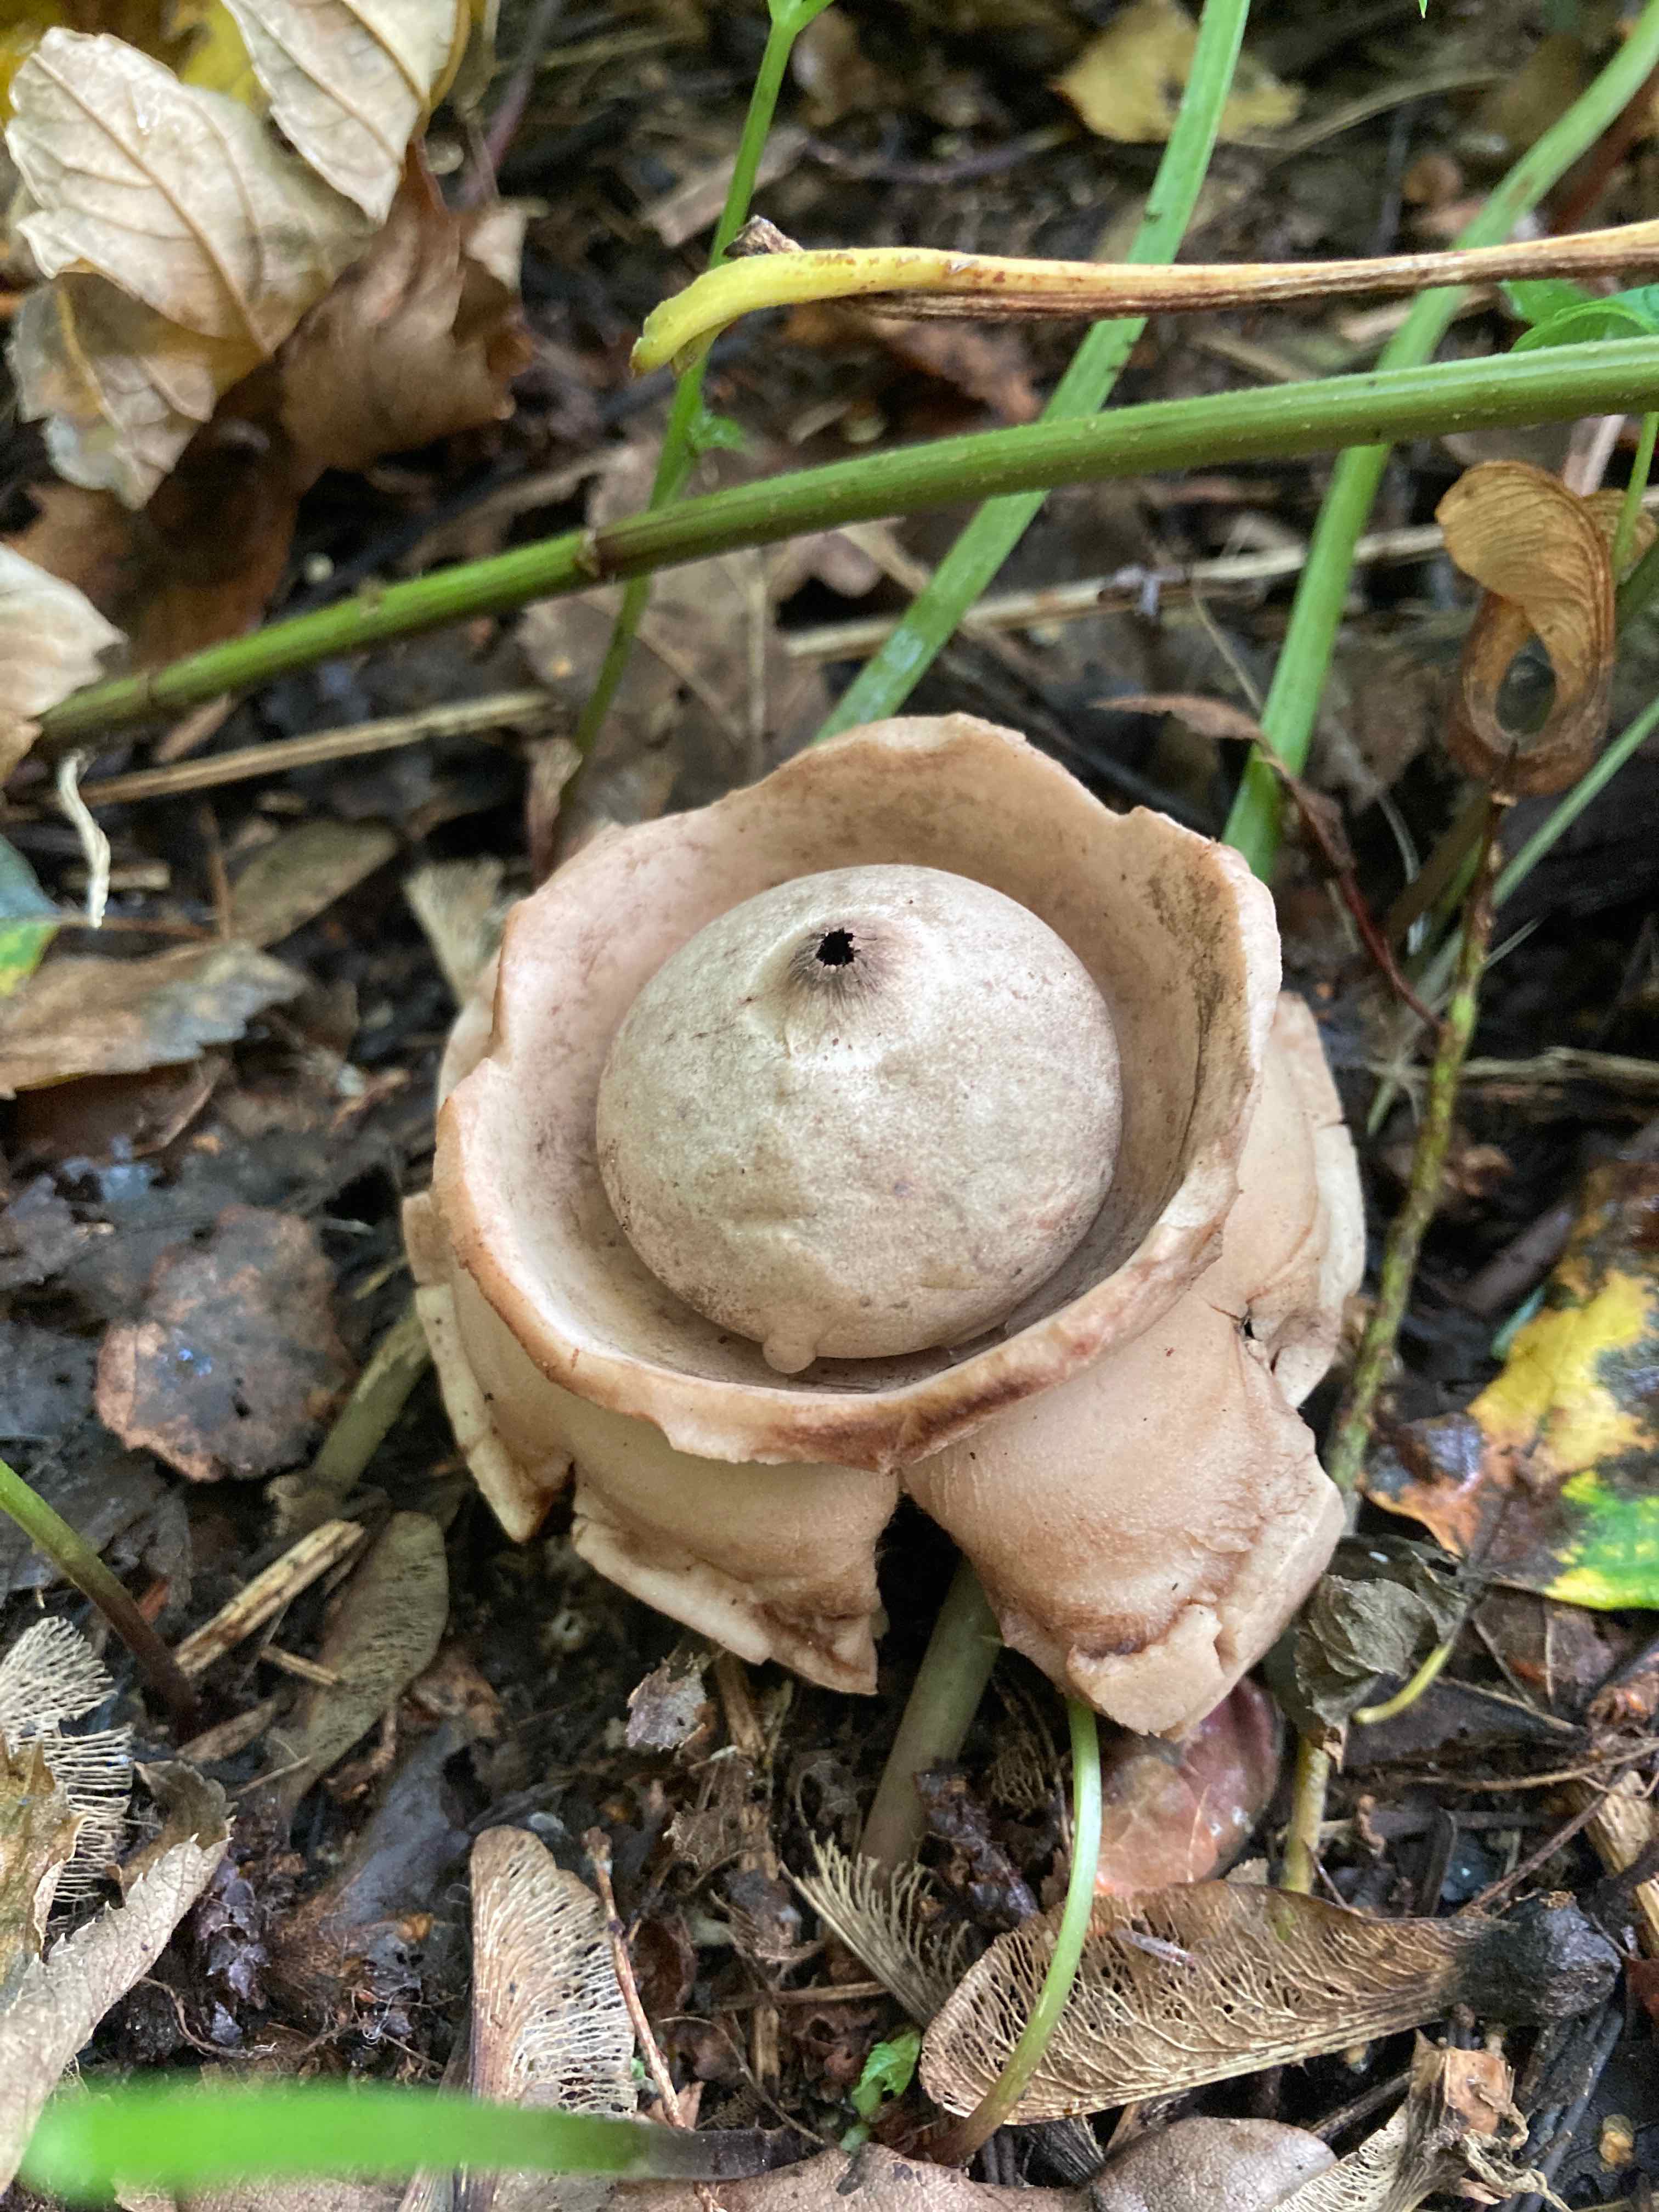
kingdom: Fungi
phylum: Basidiomycota
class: Agaricomycetes
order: Geastrales
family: Geastraceae
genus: Geastrum
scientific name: Geastrum michelianum
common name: kødet stjernebold
